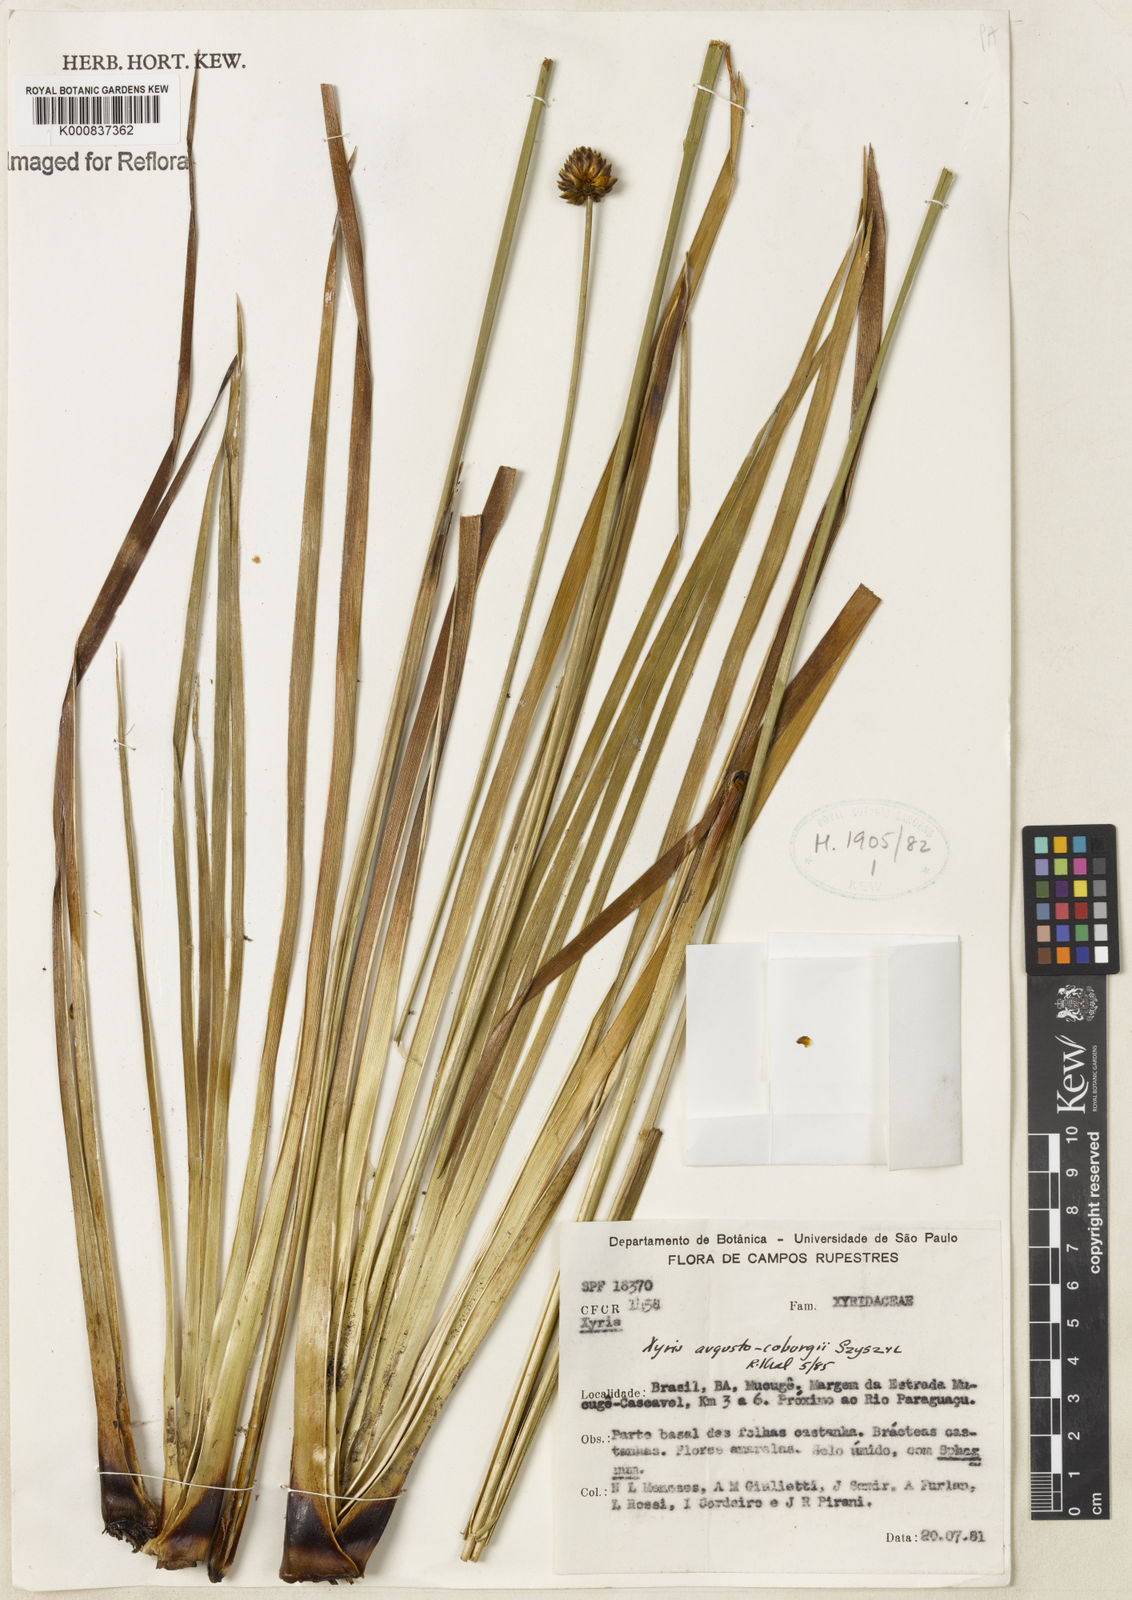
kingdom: Plantae
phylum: Tracheophyta
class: Liliopsida
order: Poales
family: Xyridaceae
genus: Xyris
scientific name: Xyris augusto-coburgii
